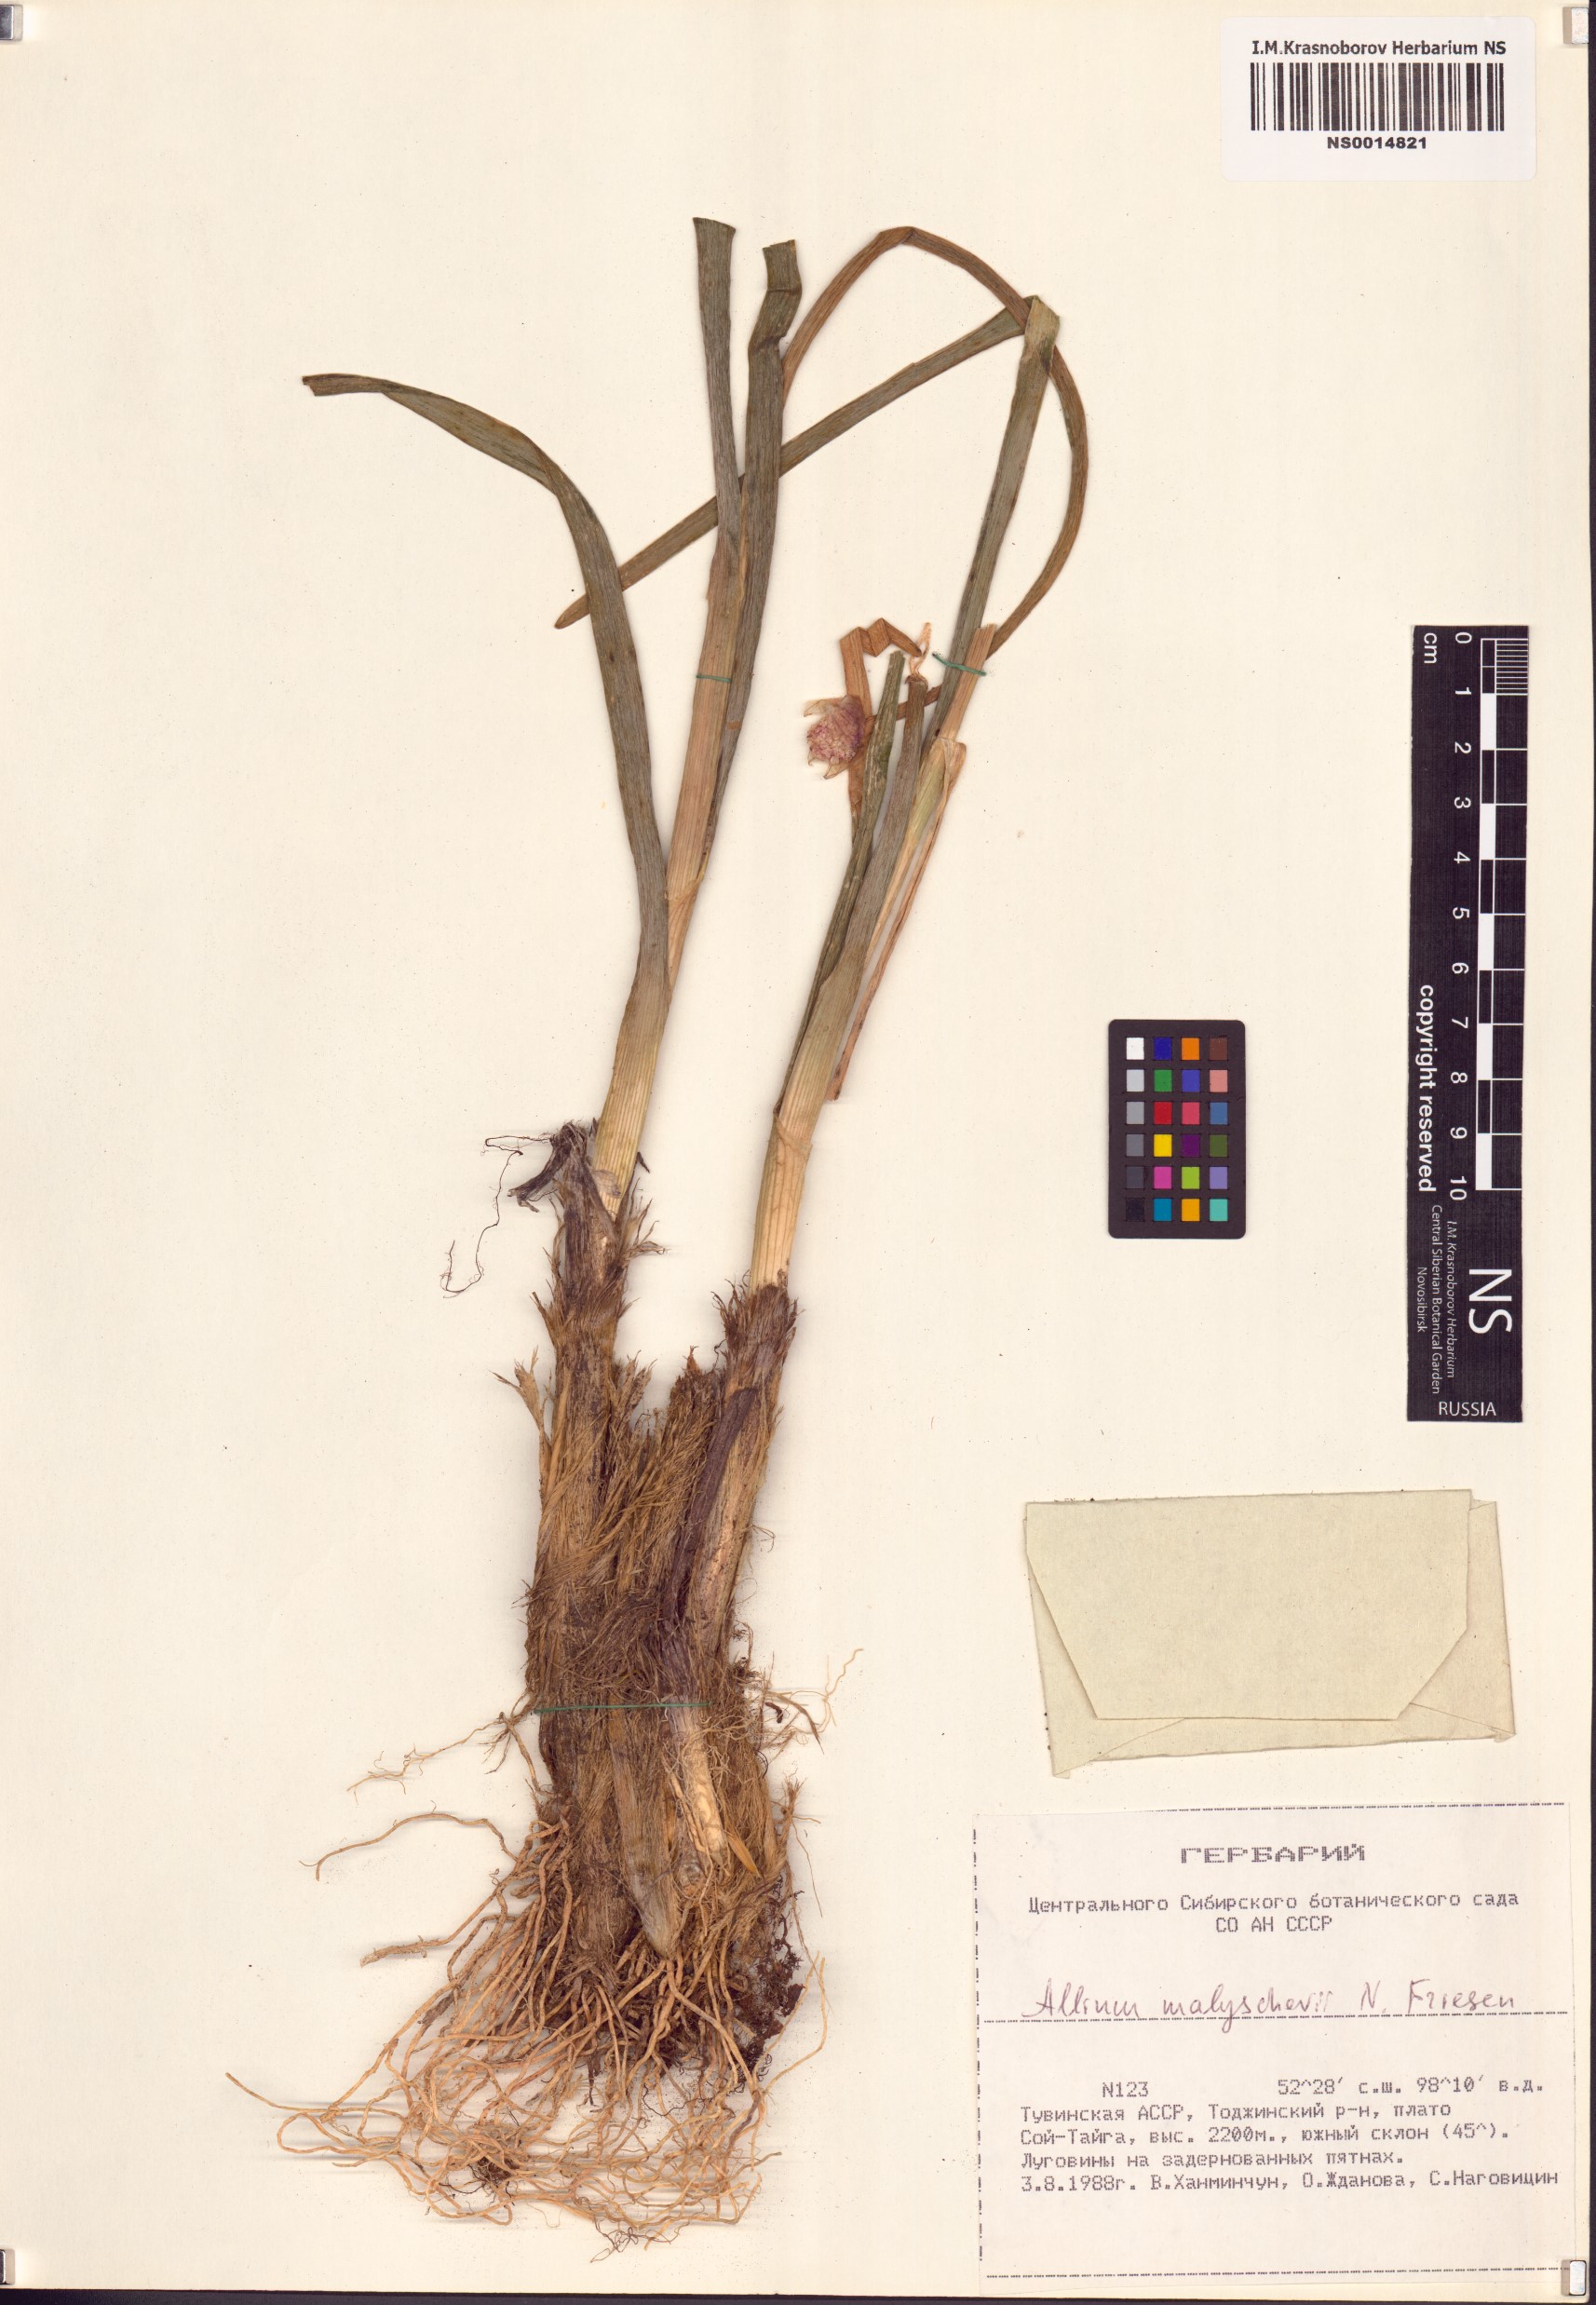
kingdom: Plantae
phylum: Tracheophyta
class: Liliopsida
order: Asparagales
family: Amaryllidaceae
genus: Allium
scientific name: Allium malyschevii
